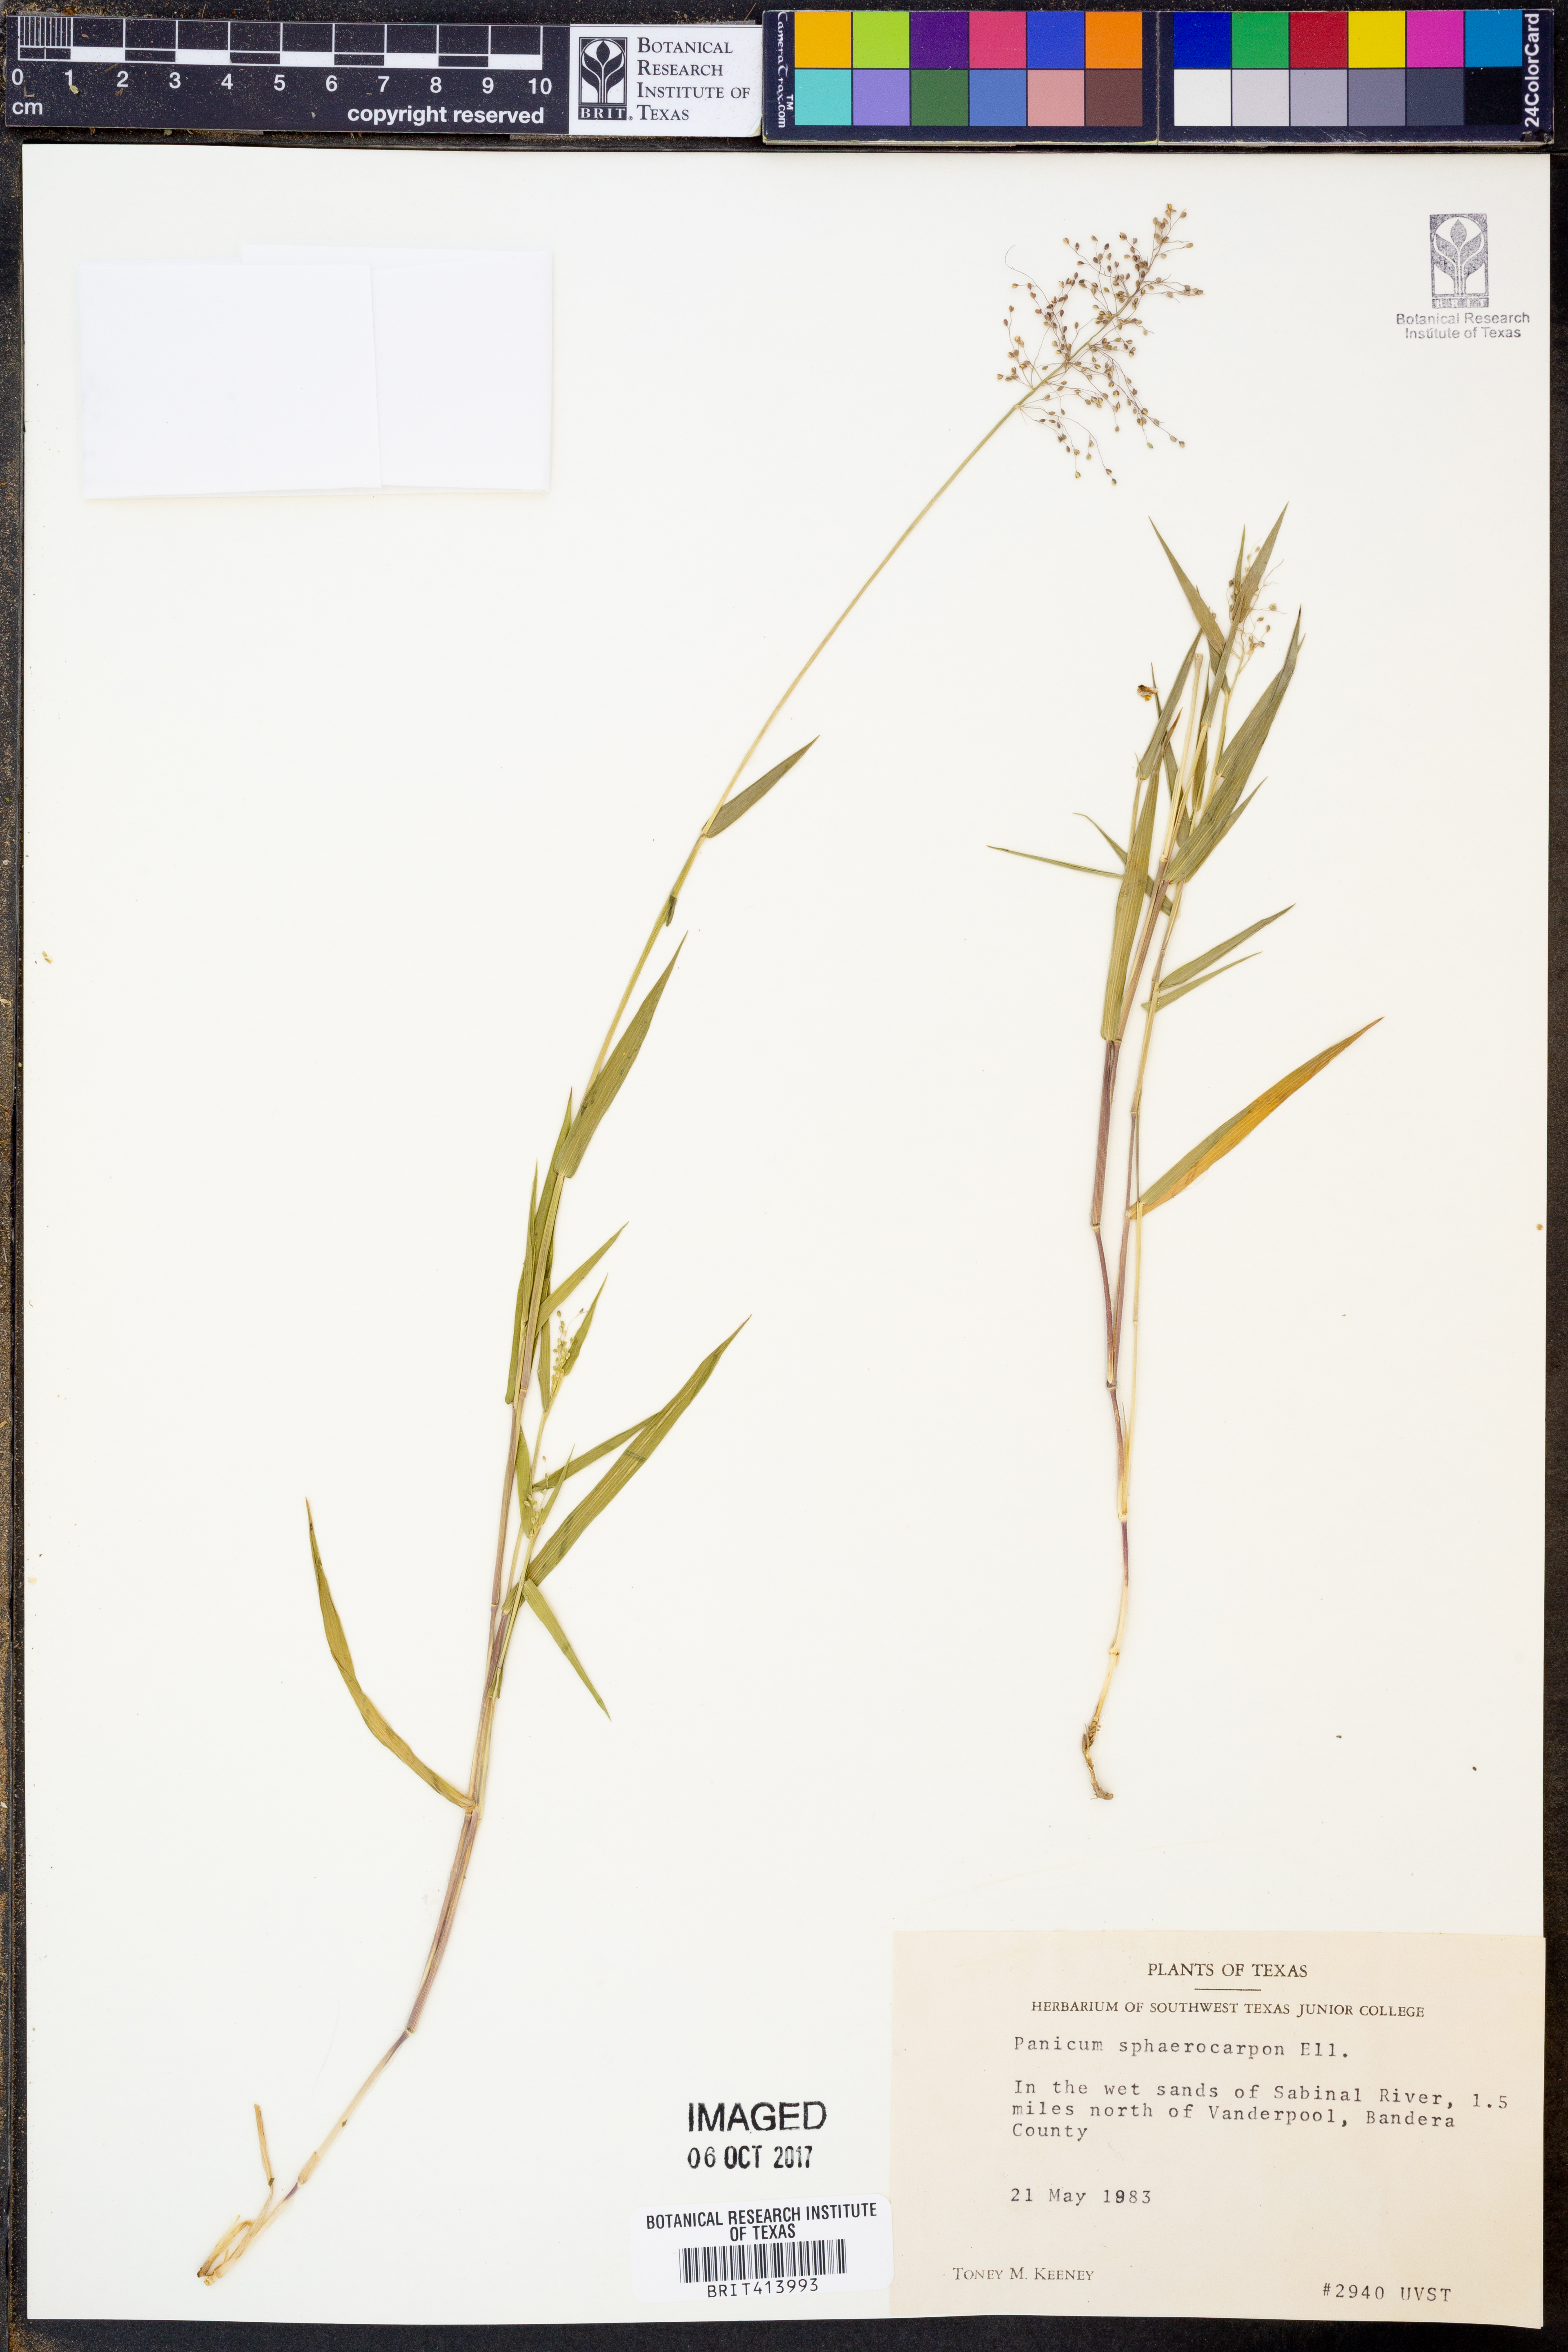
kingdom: Plantae
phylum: Tracheophyta
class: Liliopsida
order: Poales
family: Poaceae
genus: Dichanthelium
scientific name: Dichanthelium sphaerocarpon
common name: Round-fruited panicgrass
